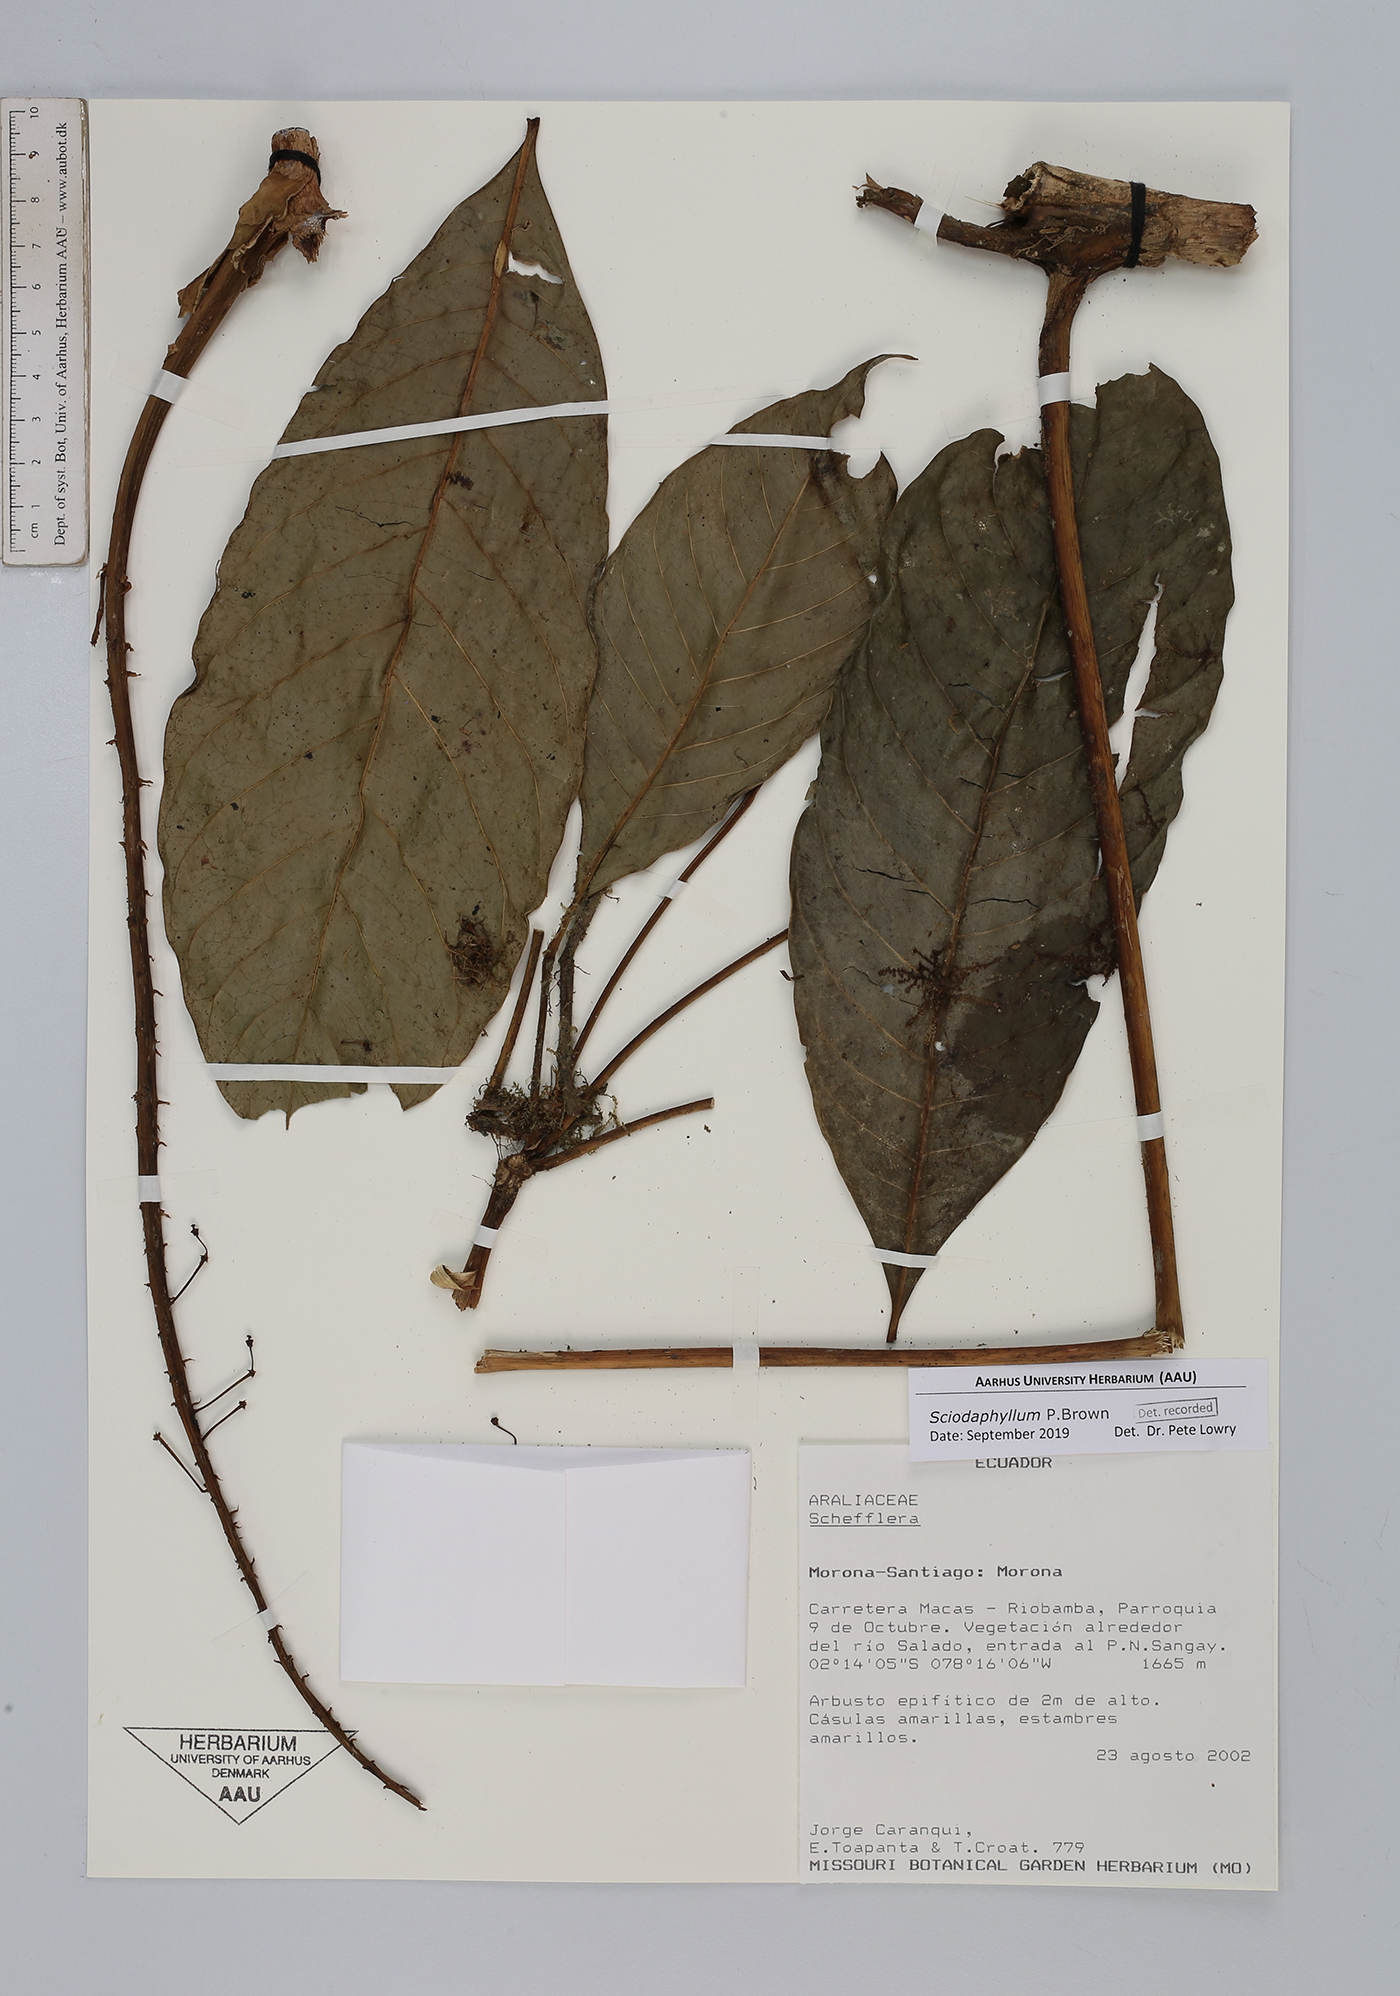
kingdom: Plantae
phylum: Tracheophyta
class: Magnoliopsida
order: Apiales
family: Araliaceae
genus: Sciodaphyllum
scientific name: Sciodaphyllum
